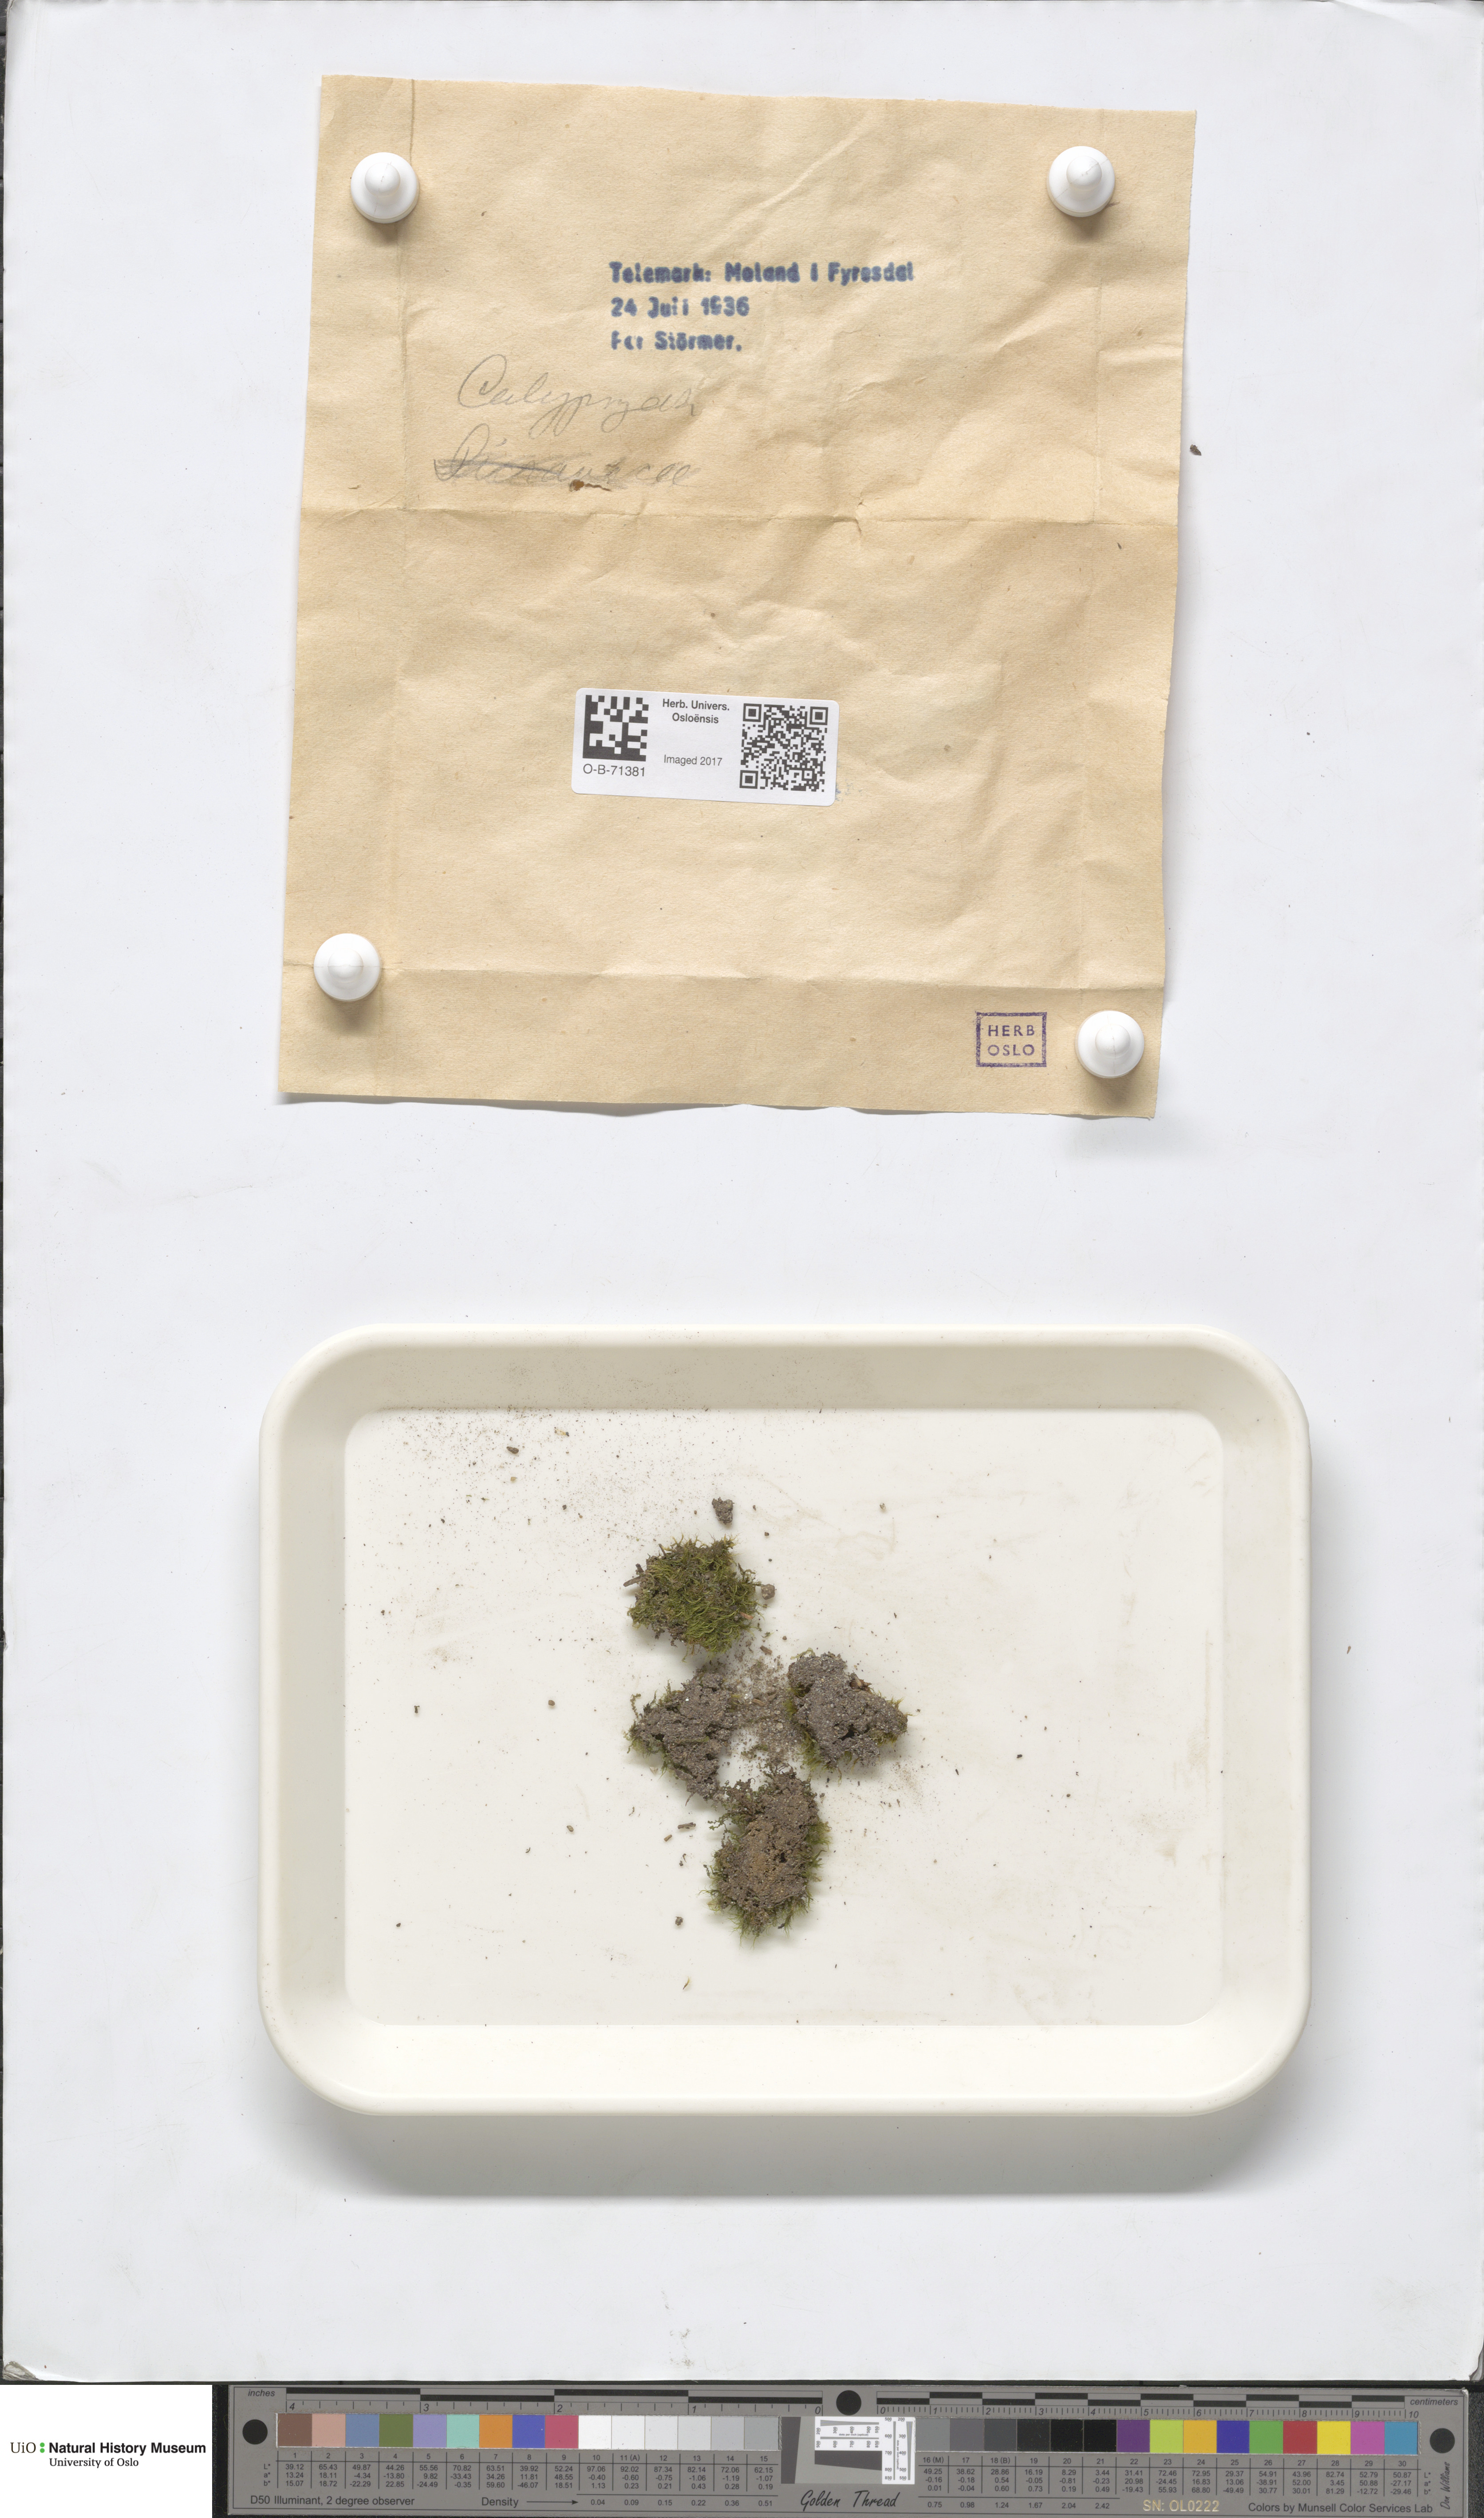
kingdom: Plantae
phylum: Marchantiophyta
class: Jungermanniopsida
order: Jungermanniales
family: Calypogeiaceae
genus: Calypogeia
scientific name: Calypogeia
